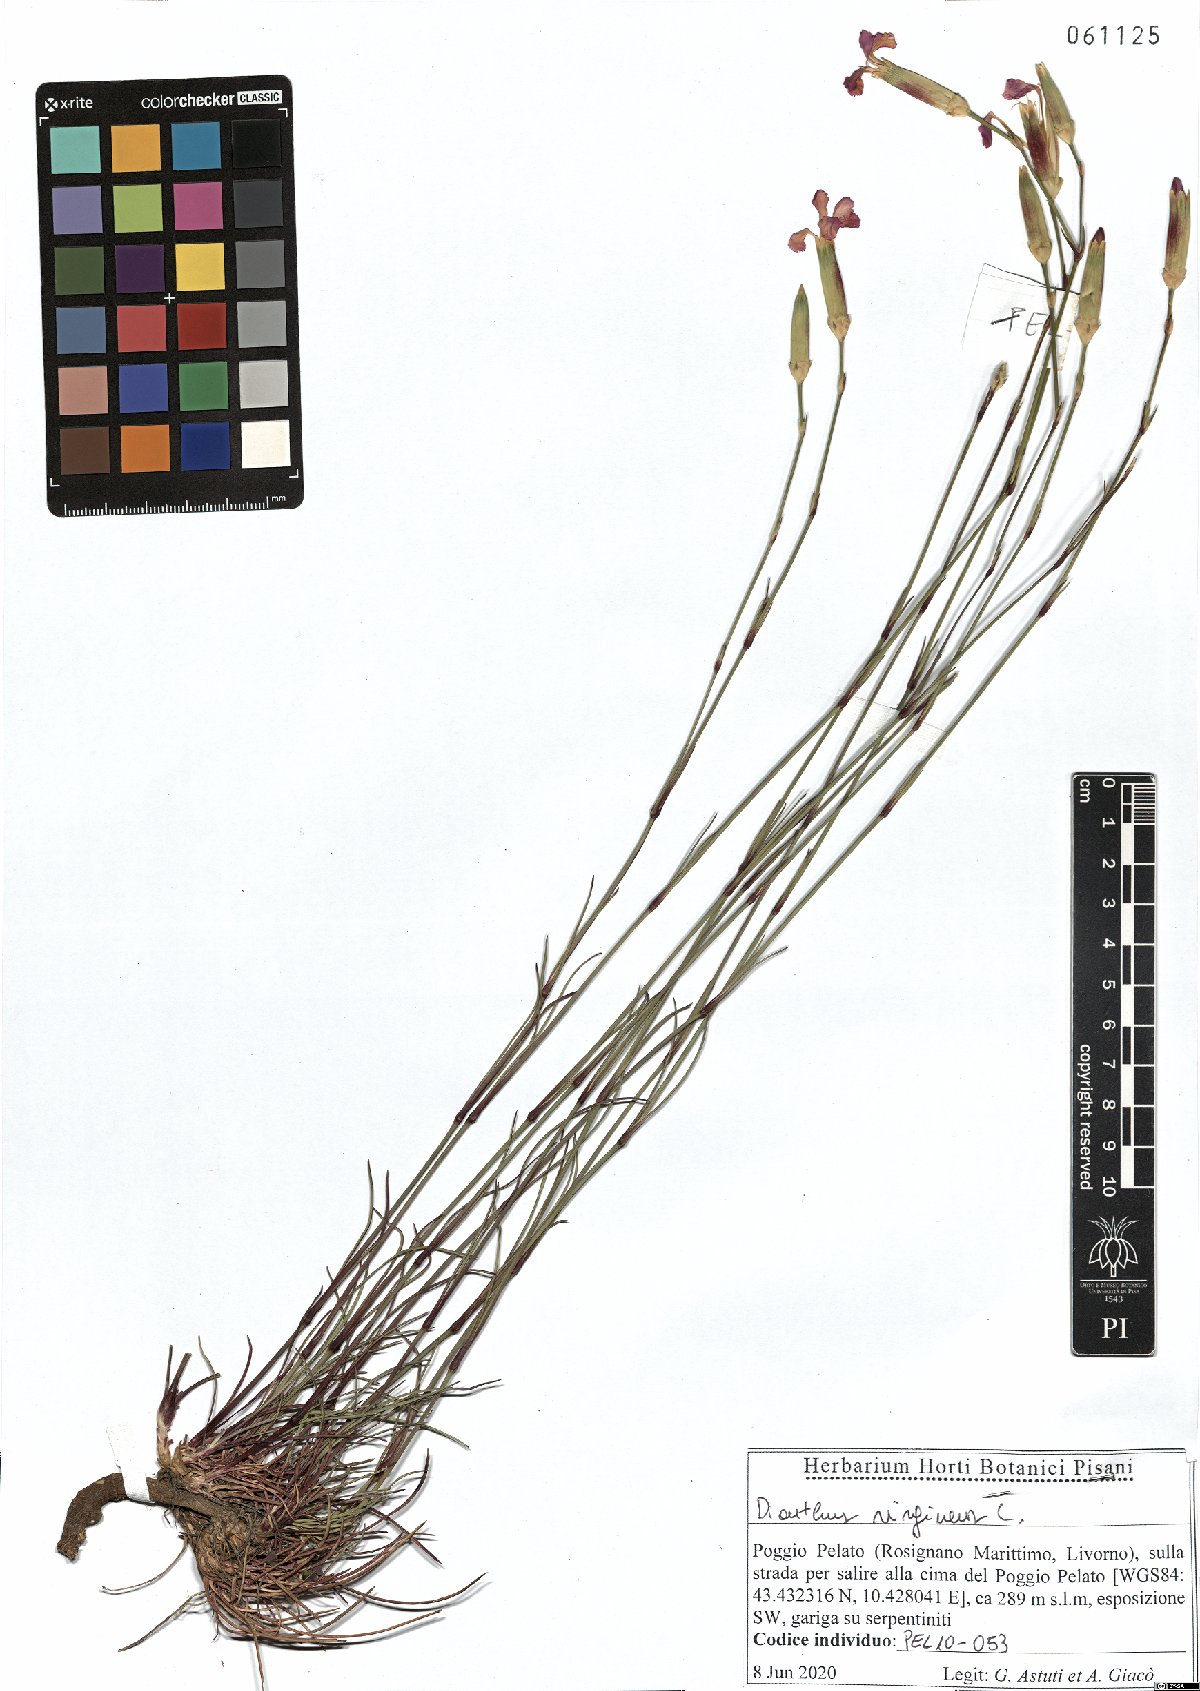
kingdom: Plantae
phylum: Tracheophyta
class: Magnoliopsida
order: Caryophyllales
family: Caryophyllaceae
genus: Dianthus
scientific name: Dianthus virgineus
